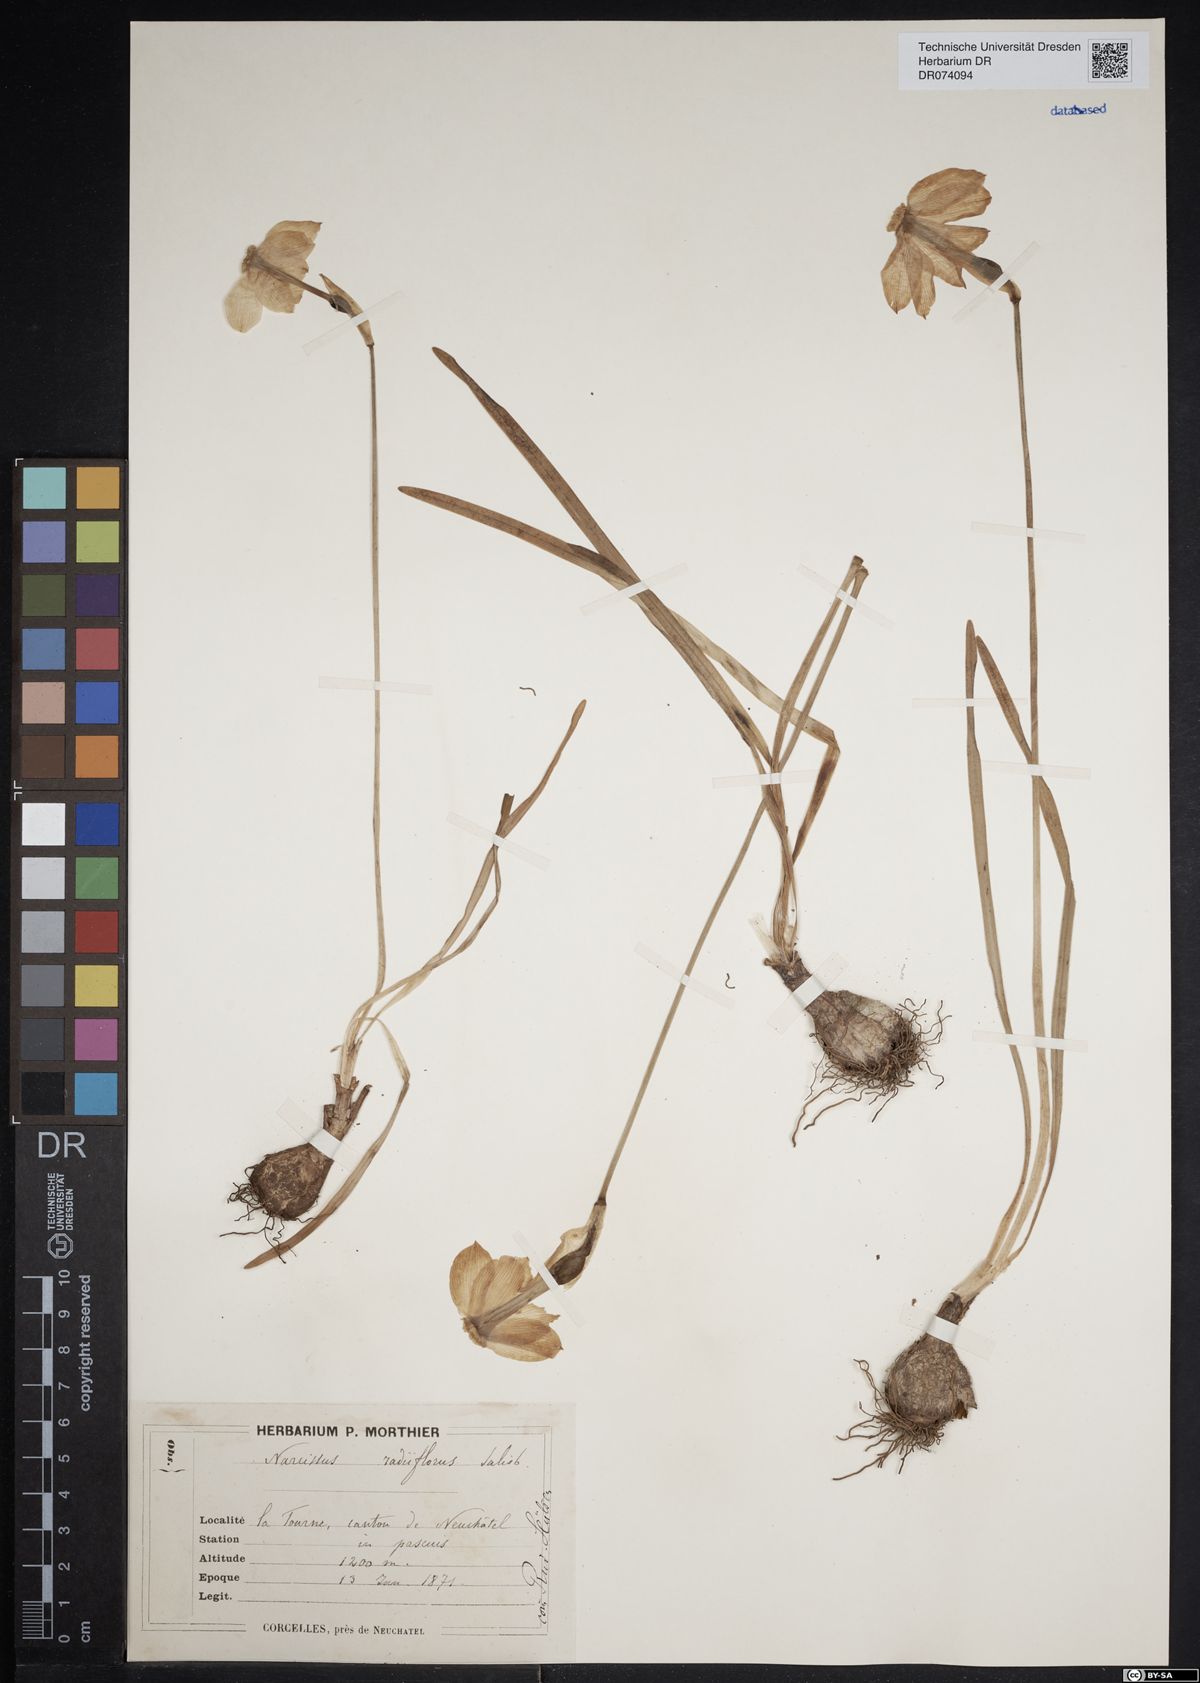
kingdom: Plantae
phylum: Tracheophyta
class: Liliopsida
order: Asparagales
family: Amaryllidaceae
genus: Narcissus
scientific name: Narcissus poeticus
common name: Pheasant's-eye daffodil
